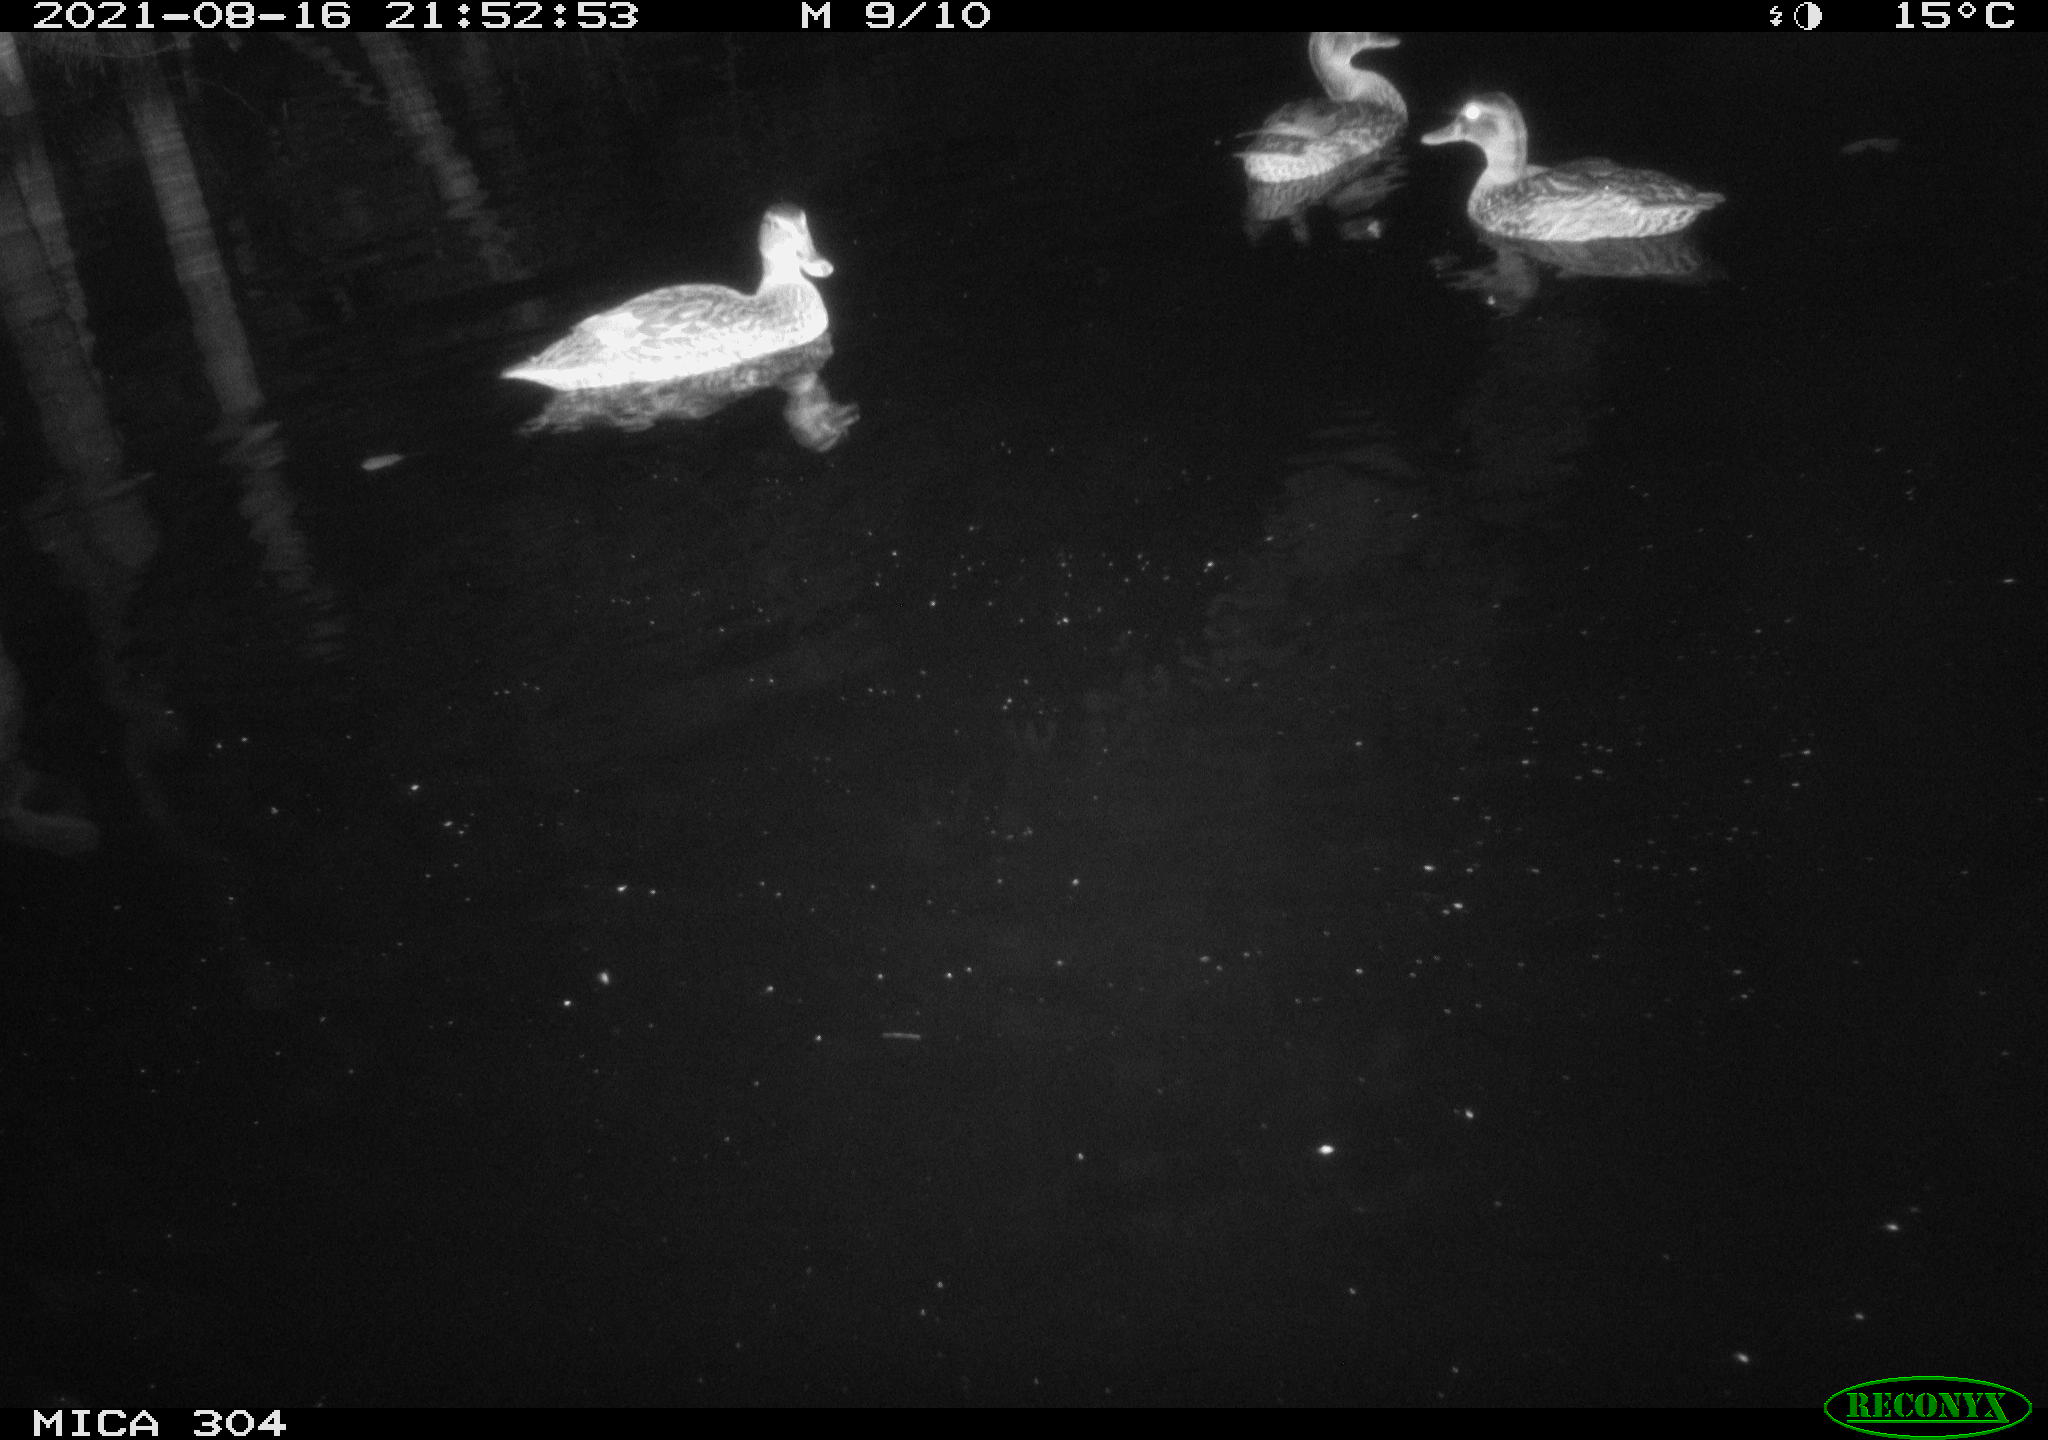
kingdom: Animalia
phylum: Chordata
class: Aves
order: Anseriformes
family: Anatidae
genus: Mareca
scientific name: Mareca strepera
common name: Gadwall
